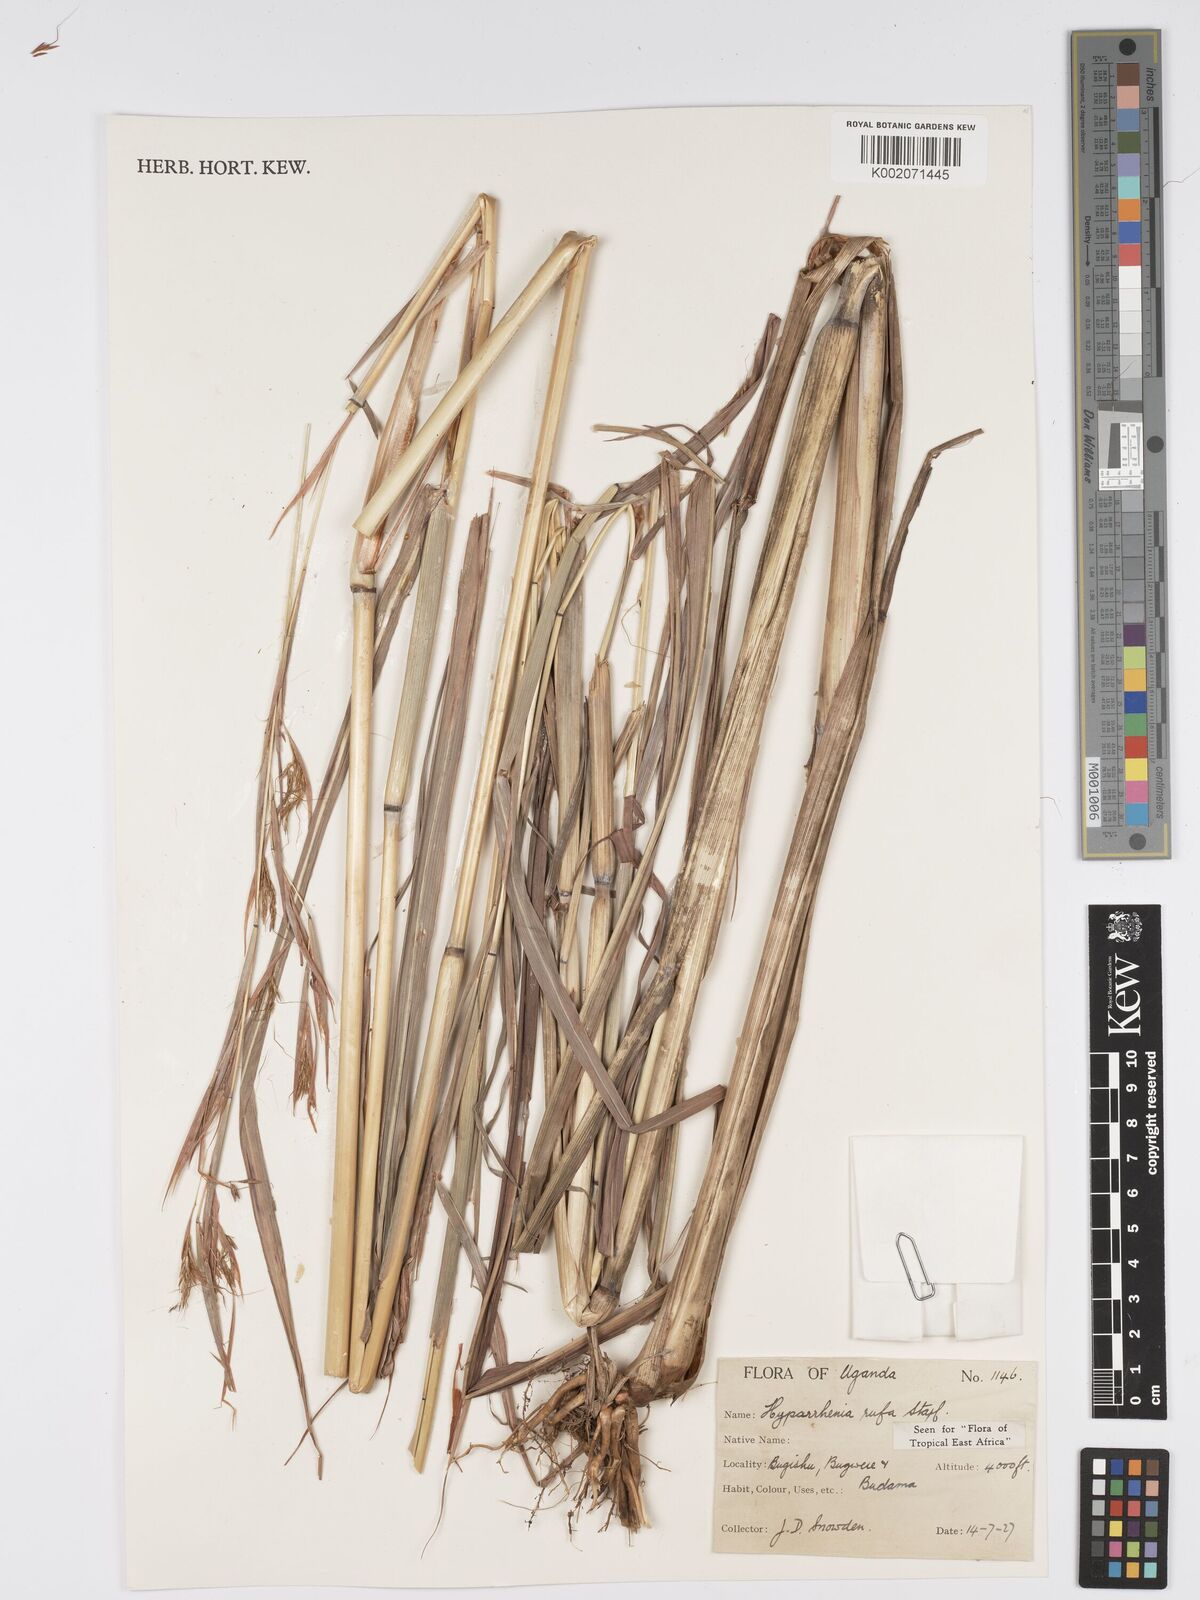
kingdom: Plantae
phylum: Tracheophyta
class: Liliopsida
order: Poales
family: Poaceae
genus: Hyparrhenia
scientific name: Hyparrhenia rufa
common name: Jaraguagrass
